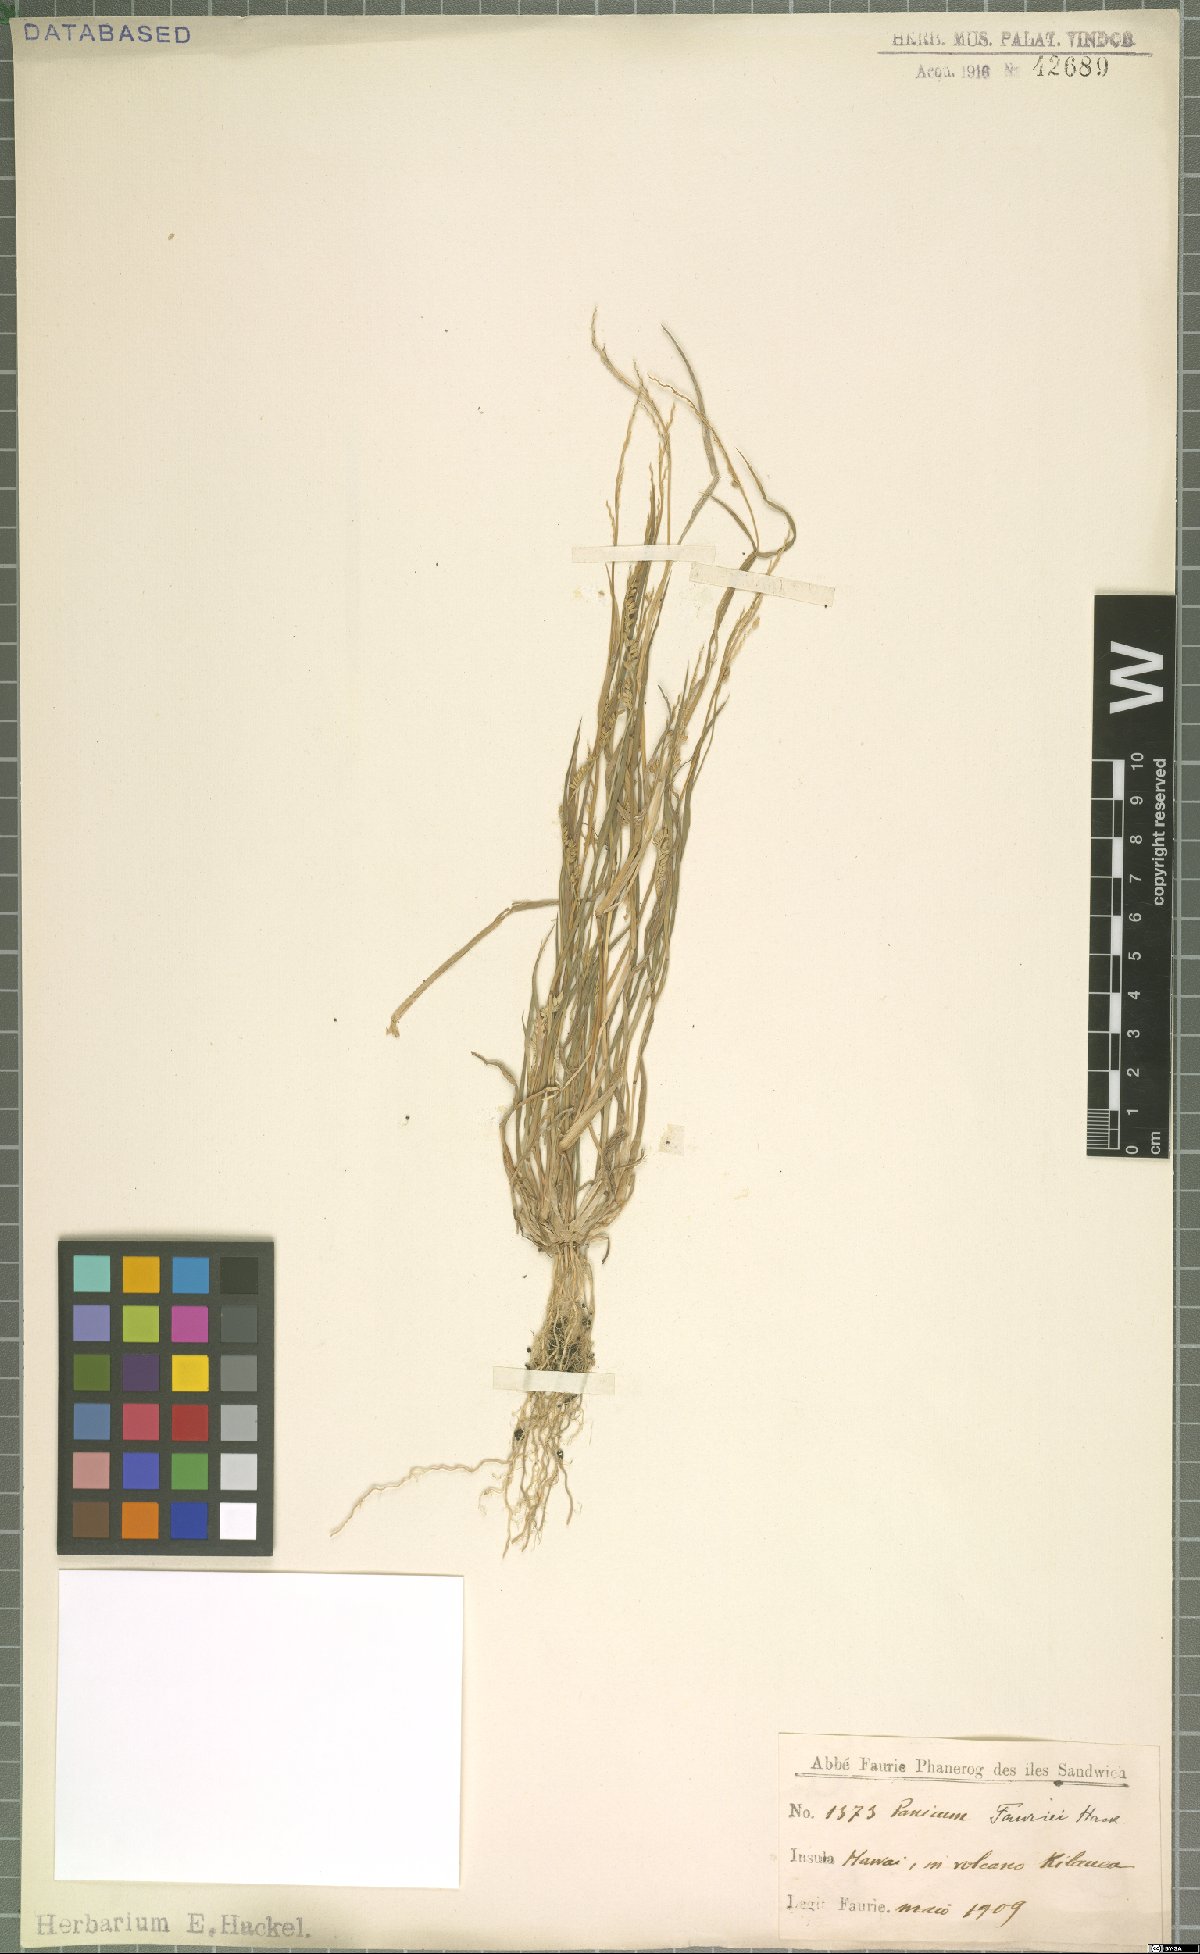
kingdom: Plantae
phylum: Tracheophyta
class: Liliopsida
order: Poales
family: Poaceae
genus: Panicum
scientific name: Panicum fauriei
